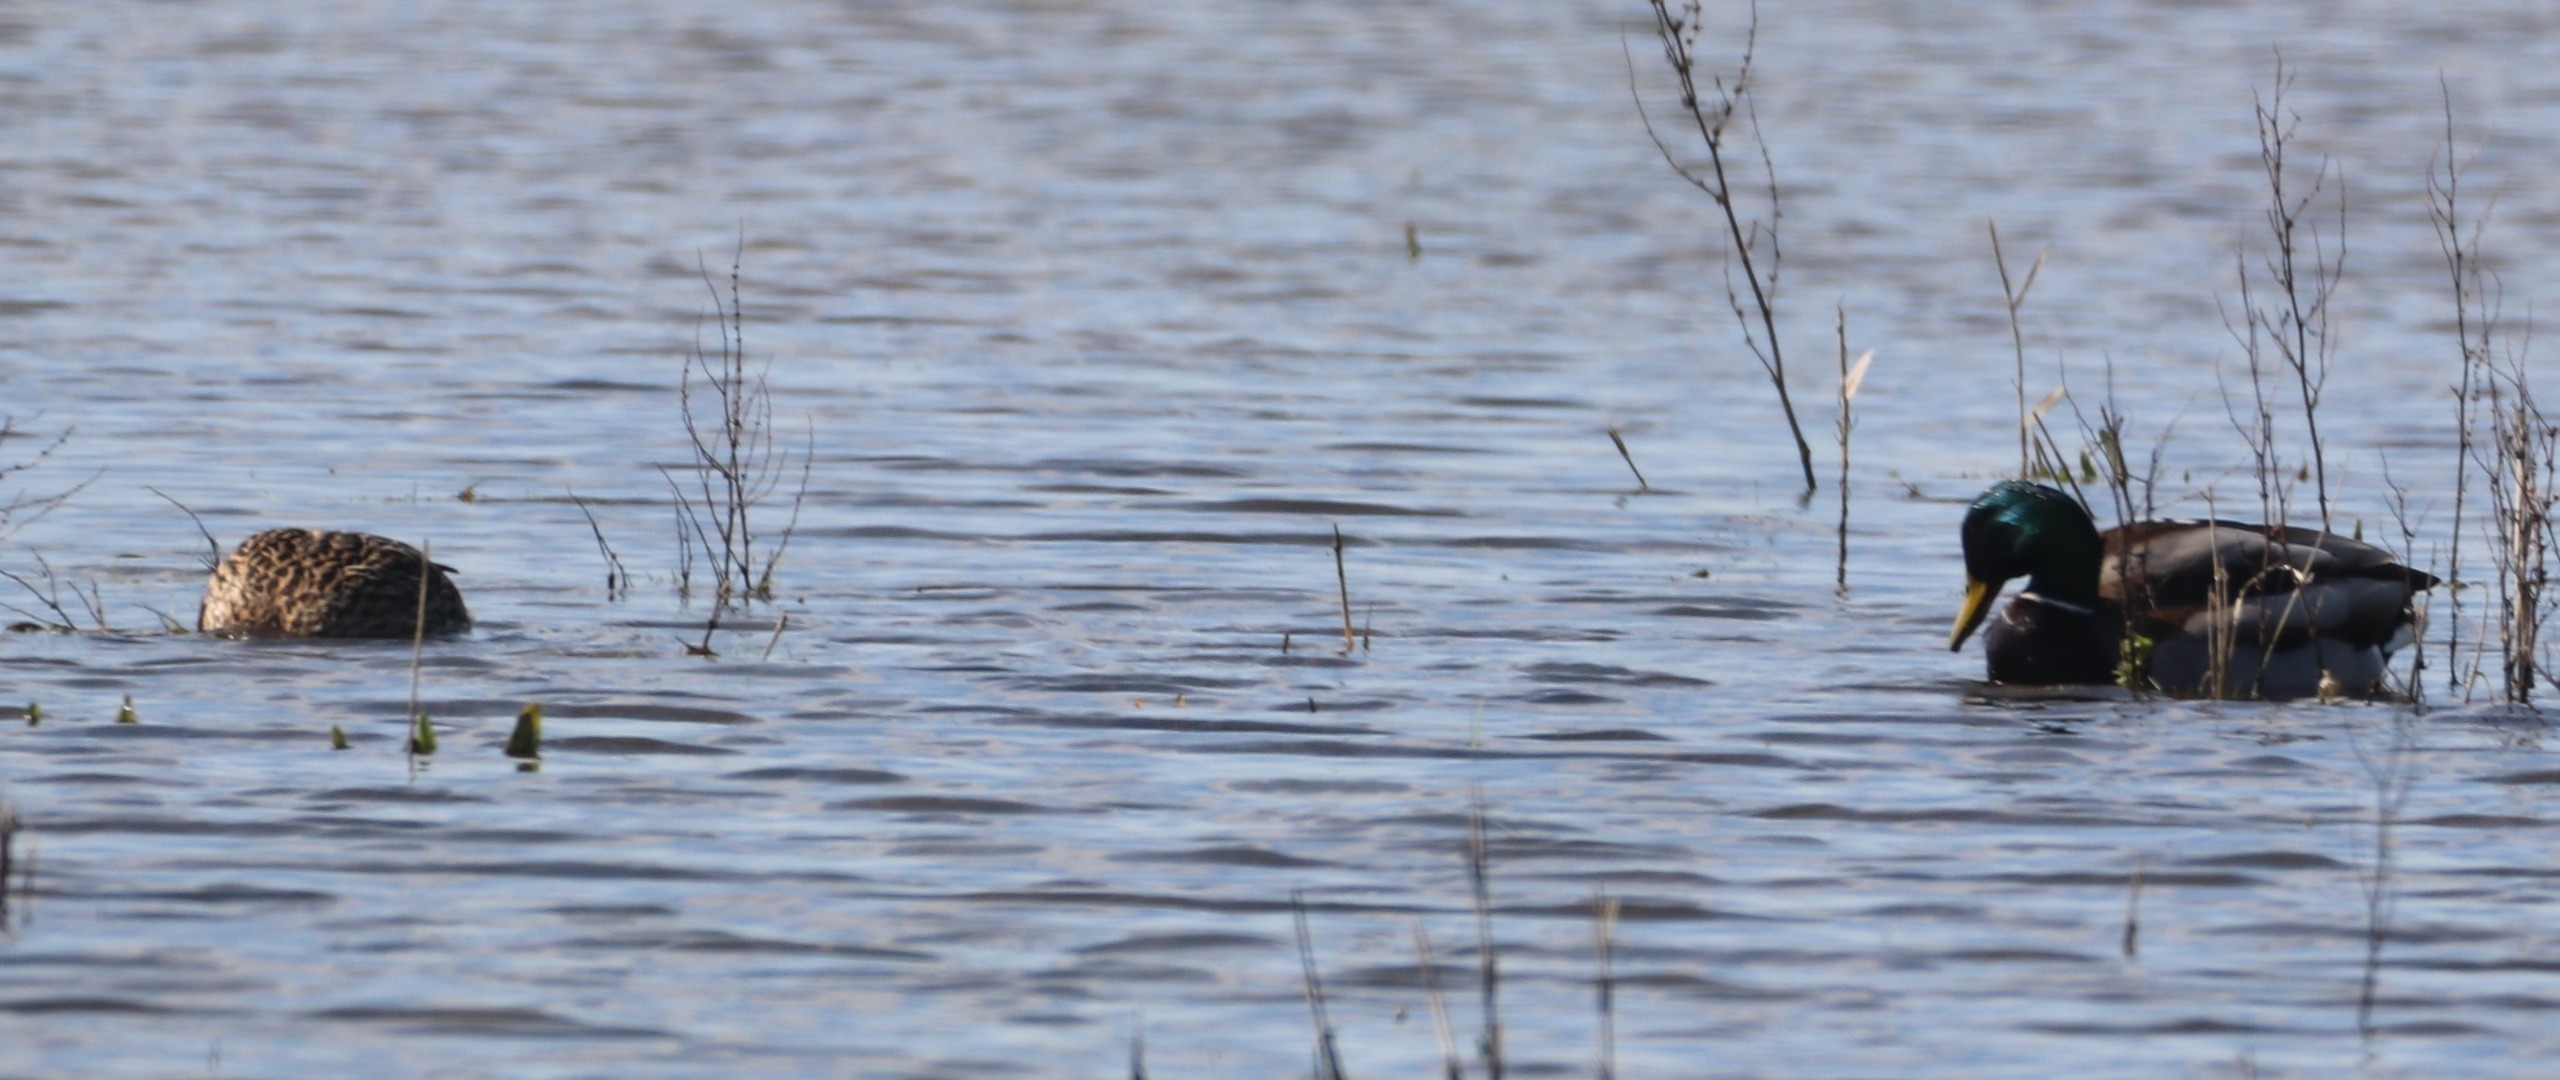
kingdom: Animalia
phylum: Chordata
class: Aves
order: Anseriformes
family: Anatidae
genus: Anas
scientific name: Anas platyrhynchos
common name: Gråand
